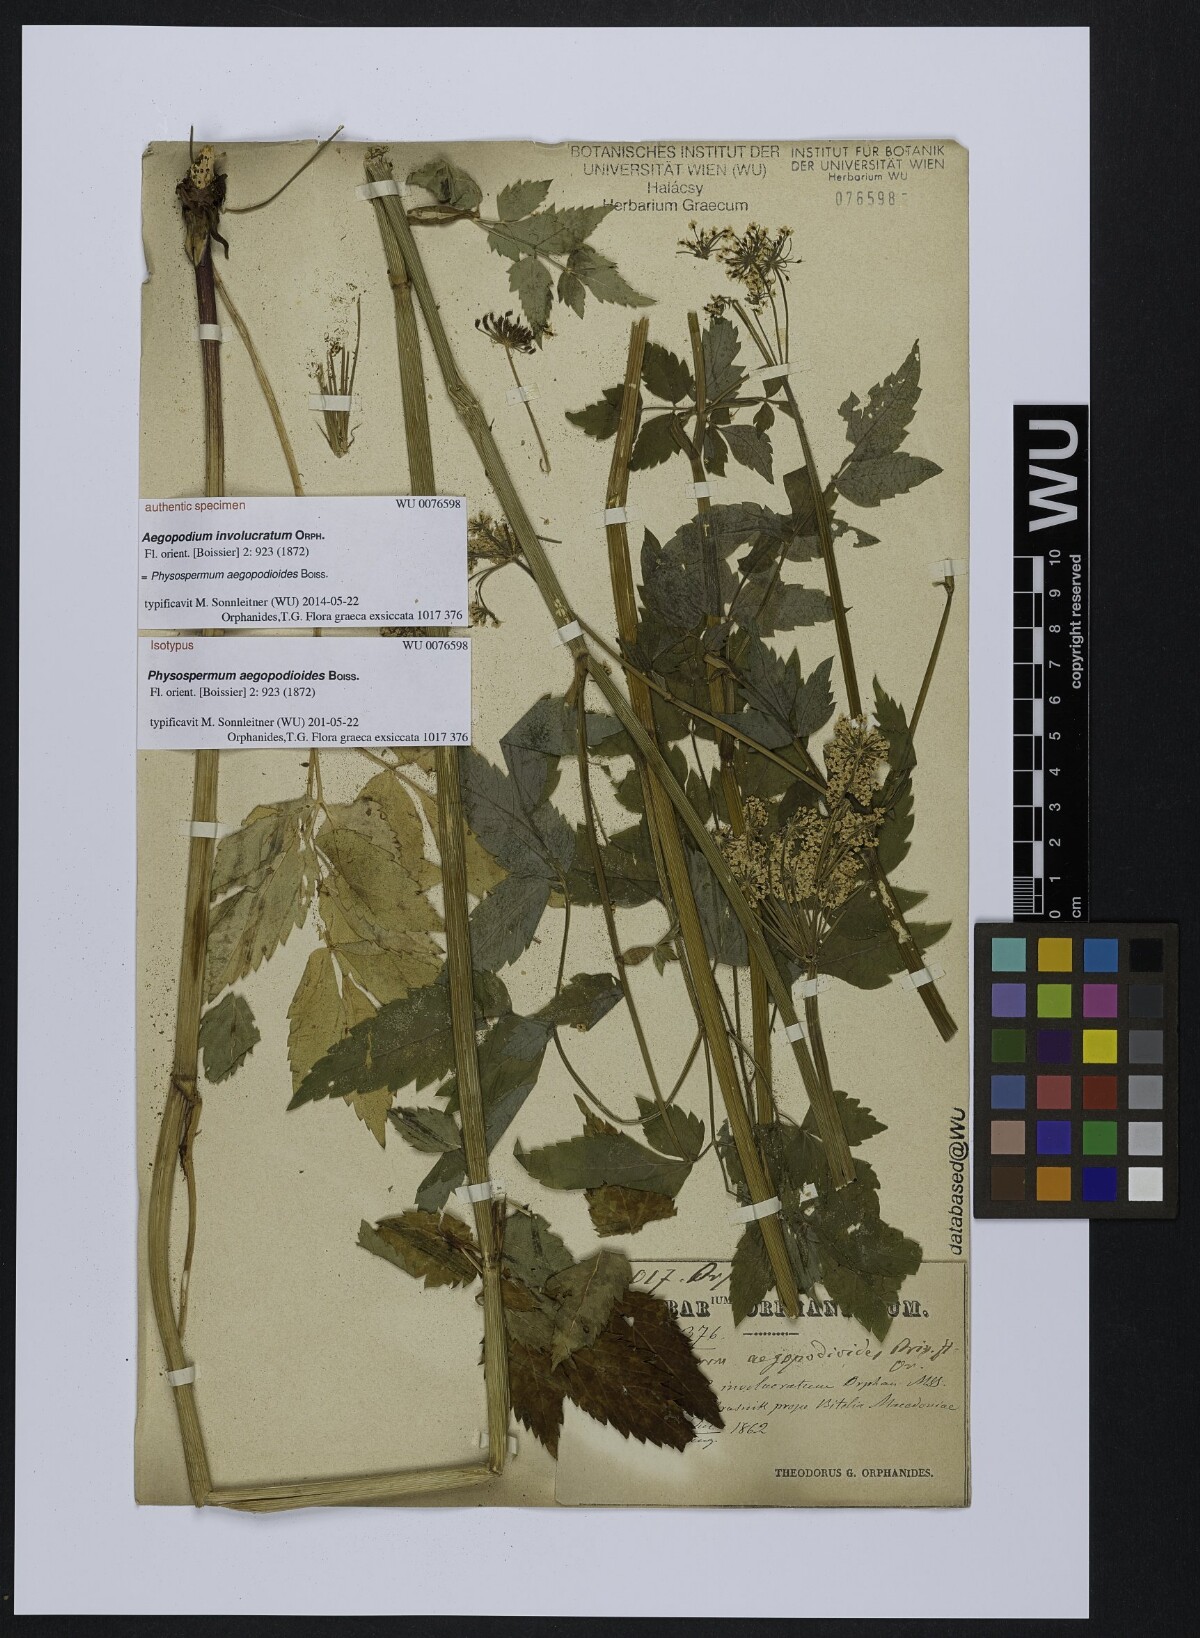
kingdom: Plantae
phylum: Tracheophyta
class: Magnoliopsida
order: Apiales
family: Apiaceae
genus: Rhizomatophora
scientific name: Rhizomatophora aegopodioides
